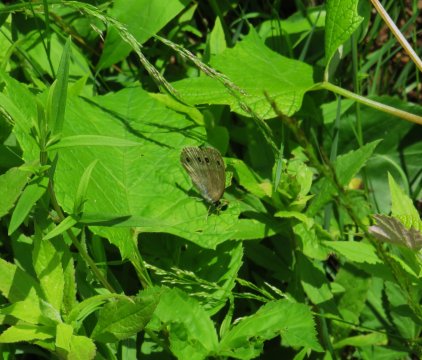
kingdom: Animalia
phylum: Arthropoda
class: Insecta
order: Lepidoptera
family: Nymphalidae
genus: Euptychia
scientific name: Euptychia cymela
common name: Little Wood Satyr
